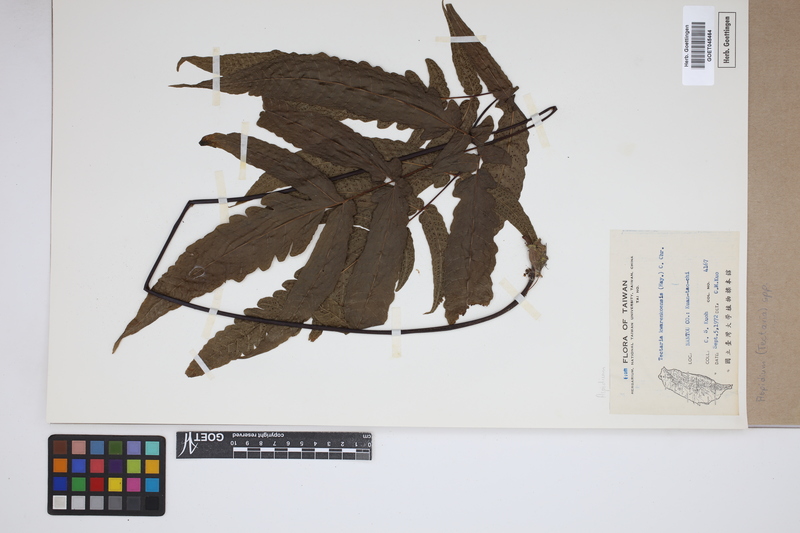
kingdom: Plantae
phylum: Tracheophyta
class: Polypodiopsida
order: Polypodiales
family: Tectariaceae
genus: Tectaria
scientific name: Tectaria Aspidium spec
